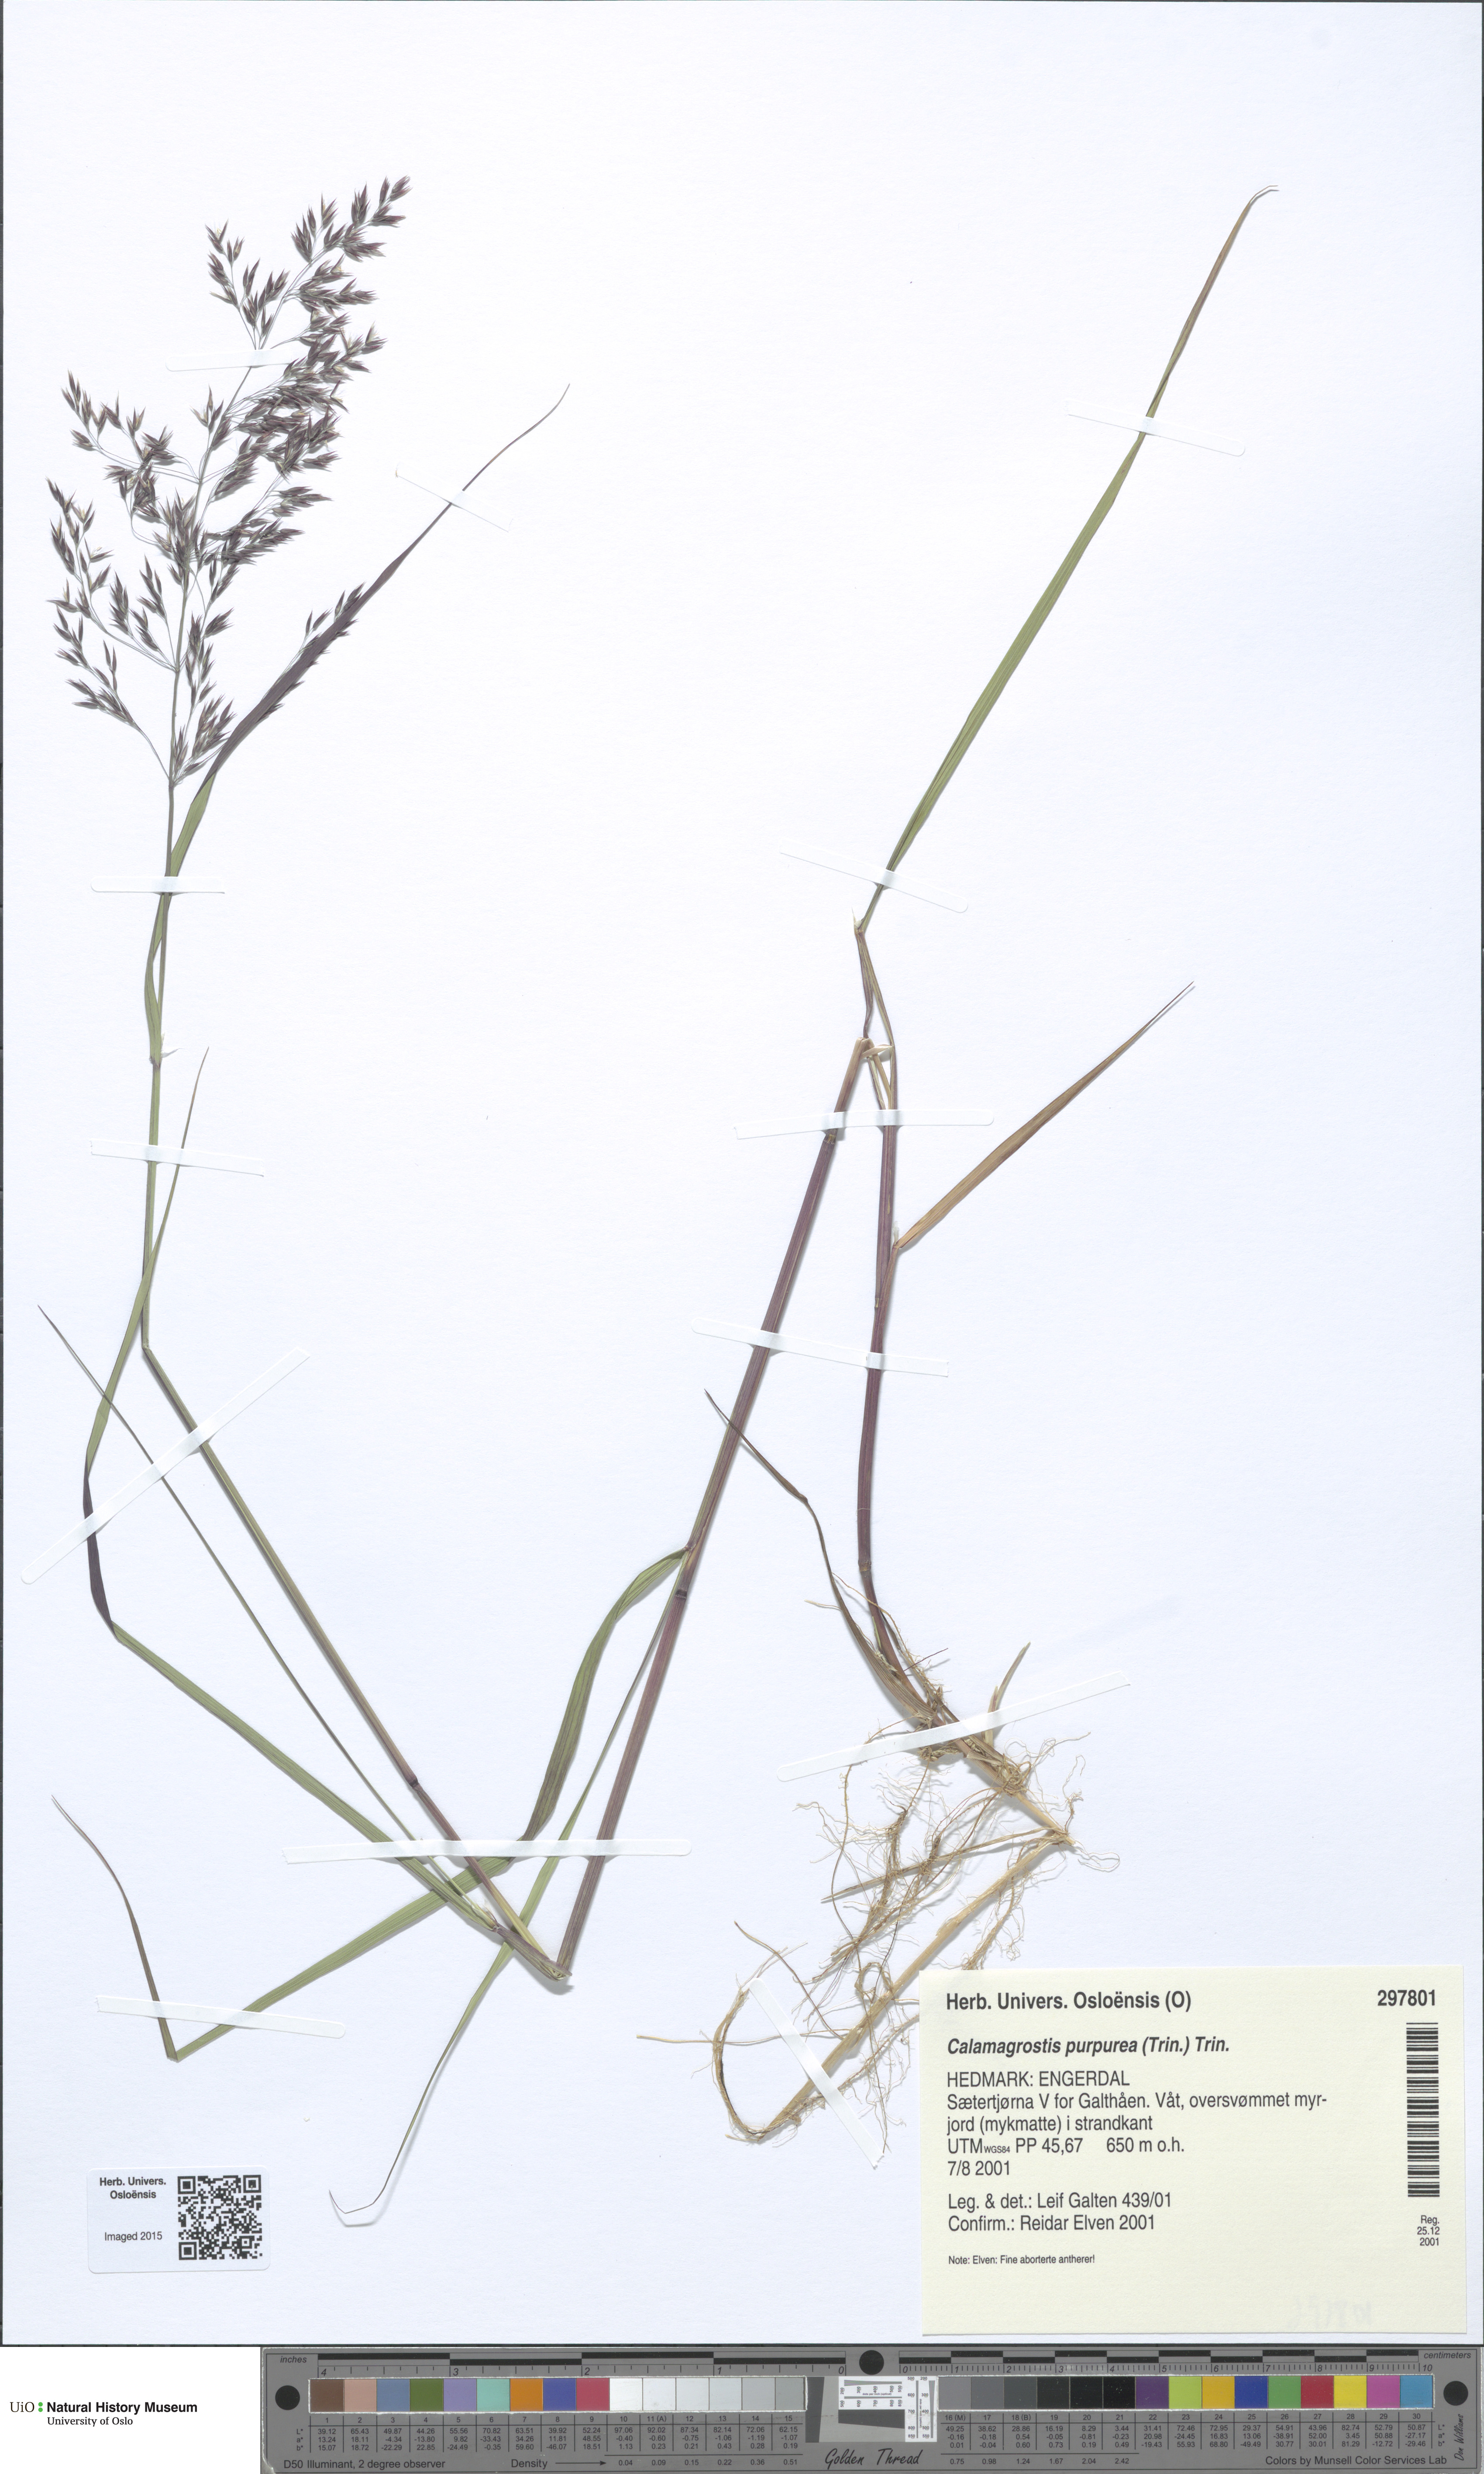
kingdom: Plantae
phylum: Tracheophyta
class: Liliopsida
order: Poales
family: Poaceae
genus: Calamagrostis
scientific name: Calamagrostis purpurea
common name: Scandinavian small-reed
